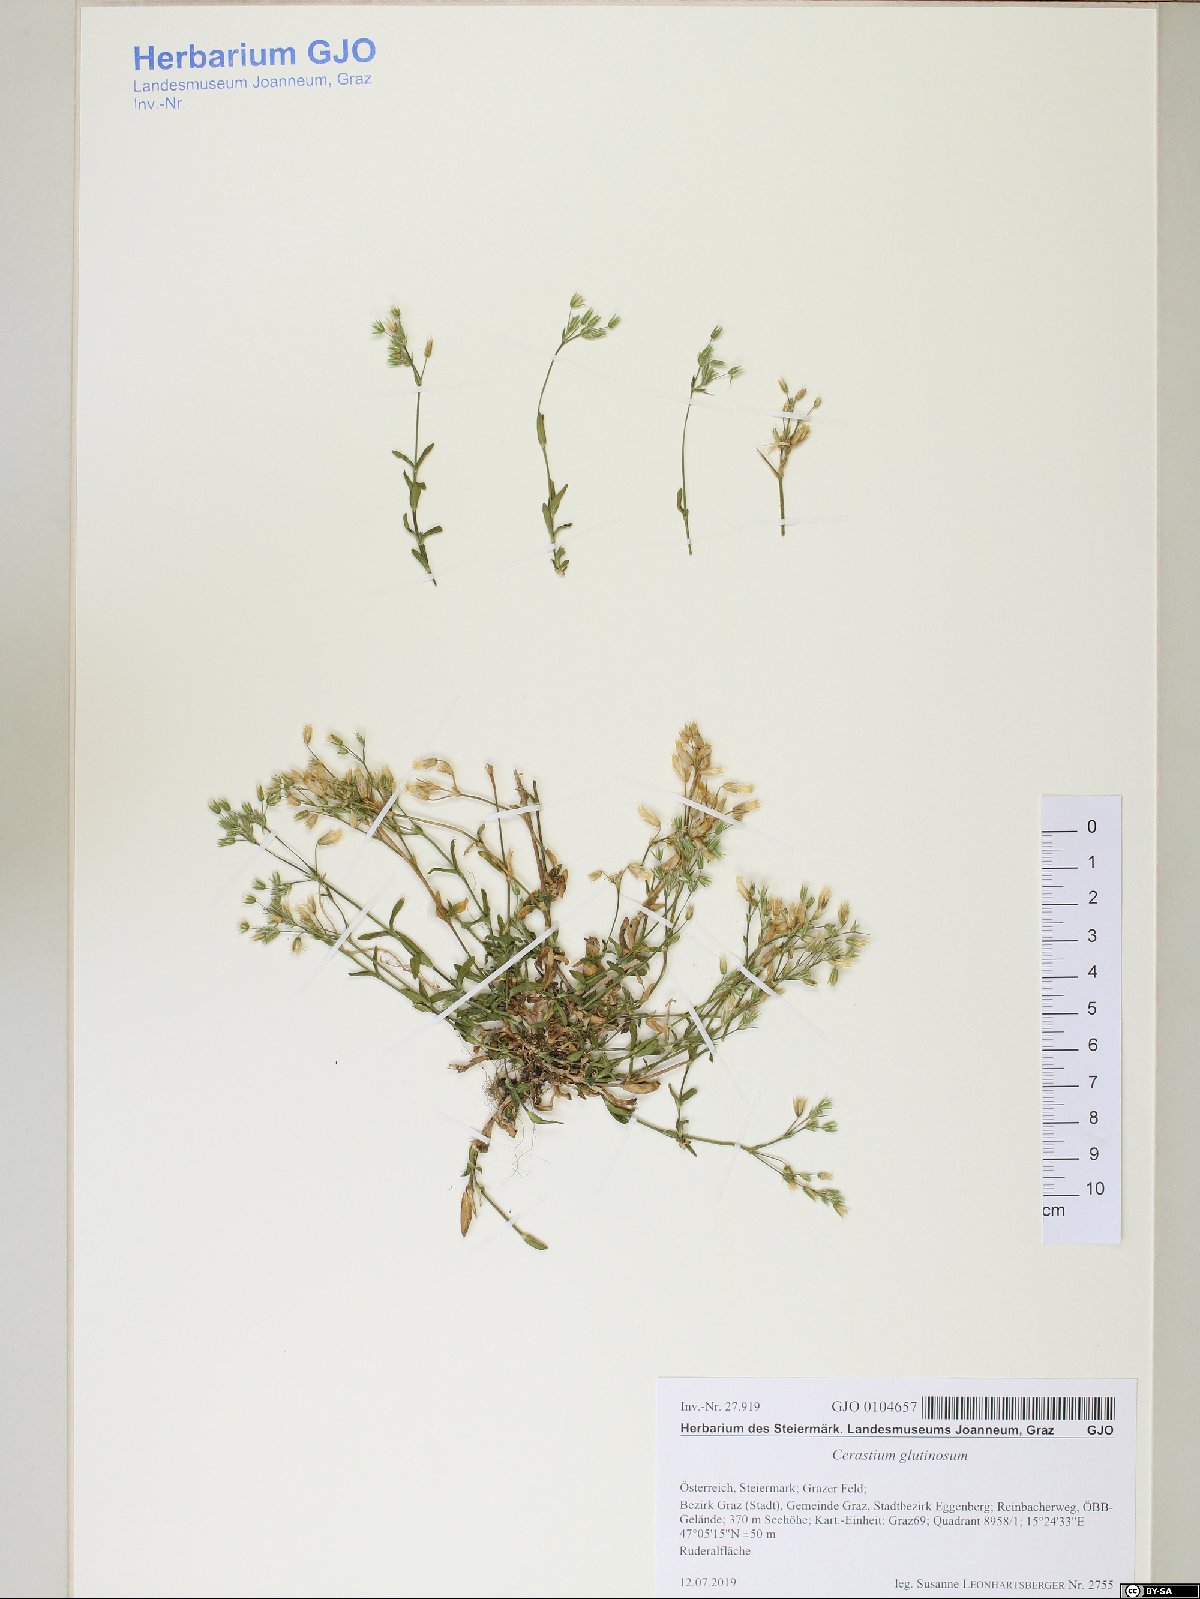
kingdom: Plantae
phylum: Tracheophyta
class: Magnoliopsida
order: Caryophyllales
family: Caryophyllaceae
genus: Cerastium
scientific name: Cerastium glutinosum
